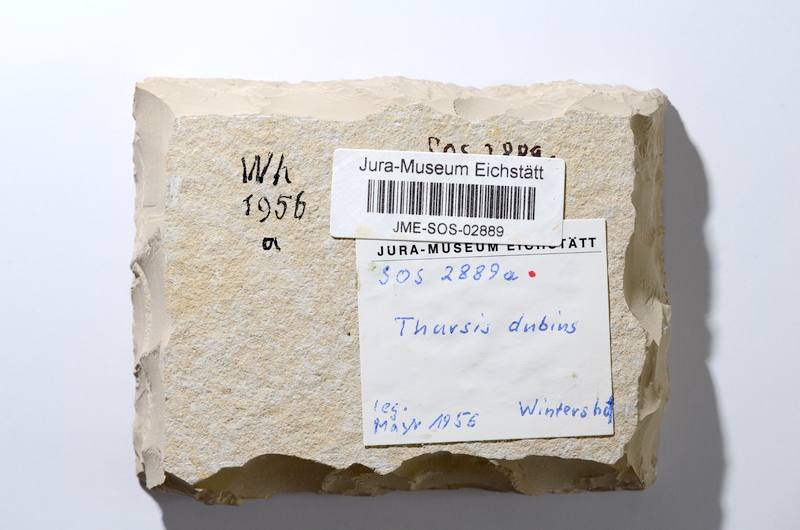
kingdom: Animalia
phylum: Chordata
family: Ascalaboidae
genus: Tharsis
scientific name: Tharsis dubius
